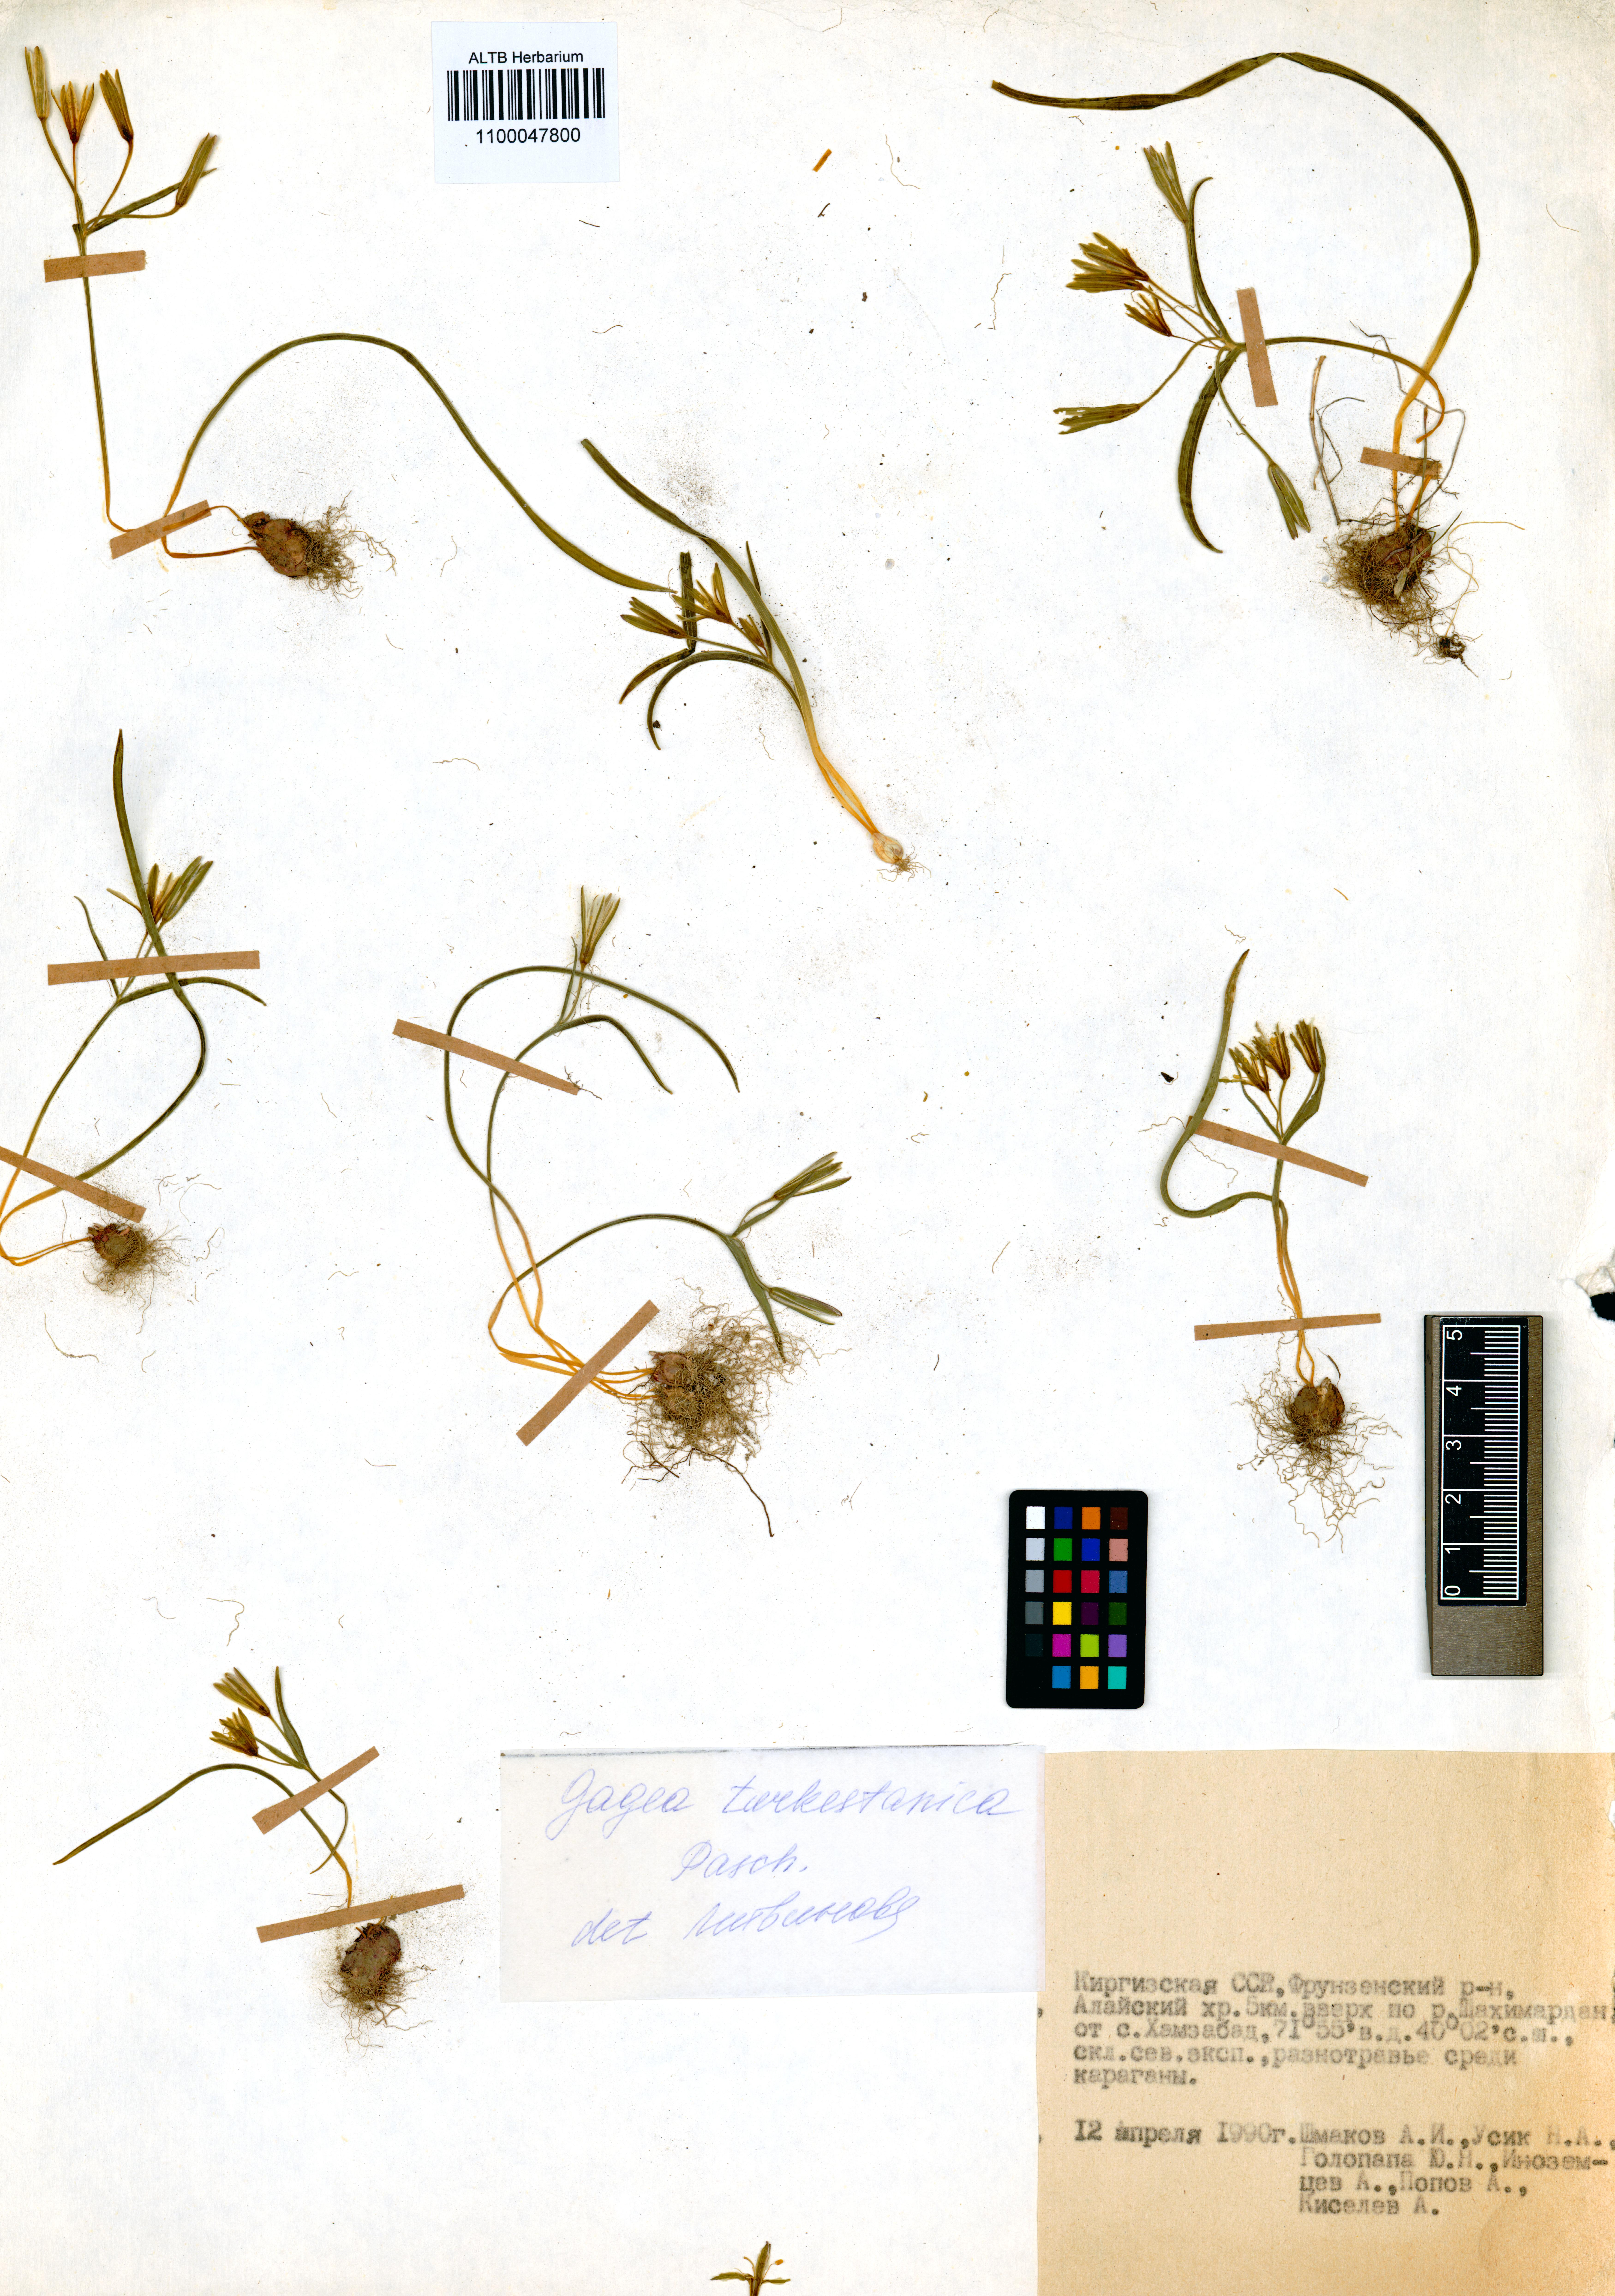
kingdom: Plantae
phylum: Tracheophyta
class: Liliopsida
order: Liliales
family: Liliaceae
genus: Gagea
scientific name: Gagea capusii
